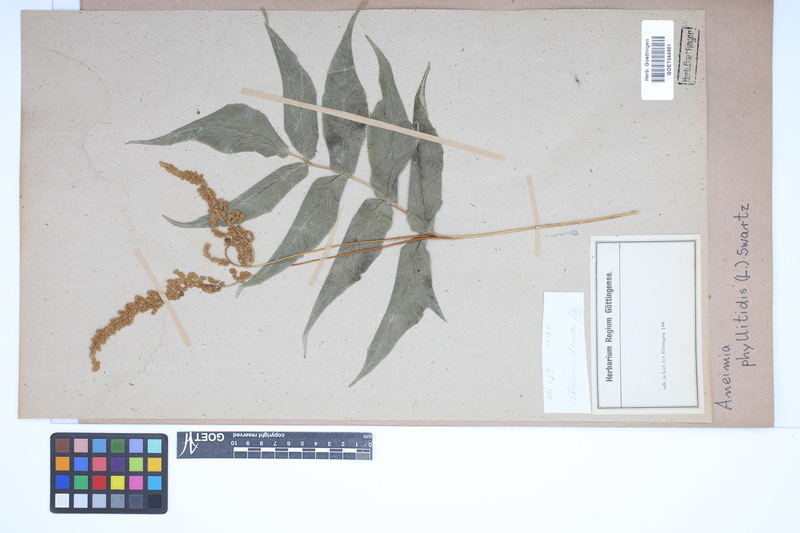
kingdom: Plantae
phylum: Tracheophyta
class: Polypodiopsida
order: Schizaeales
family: Anemiaceae
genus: Anemia
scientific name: Anemia phyllitidis
